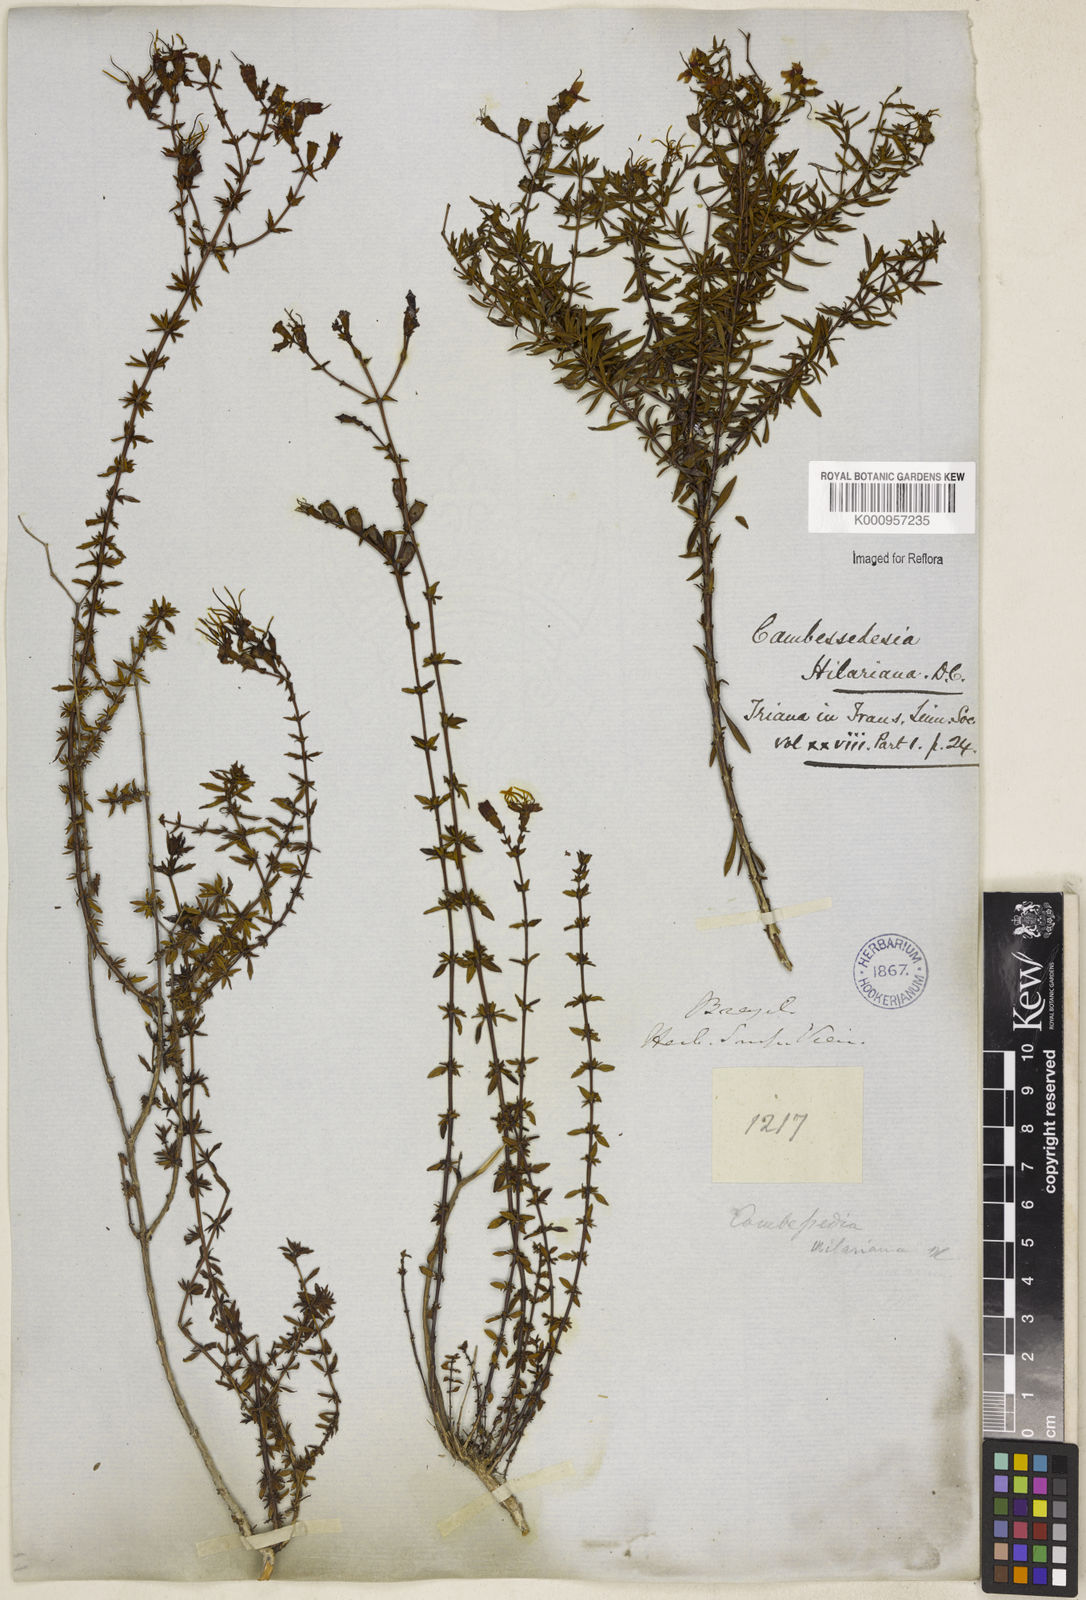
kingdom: Plantae
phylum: Tracheophyta
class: Magnoliopsida
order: Myrtales
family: Melastomataceae
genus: Cambessedesia
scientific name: Cambessedesia hilariana
